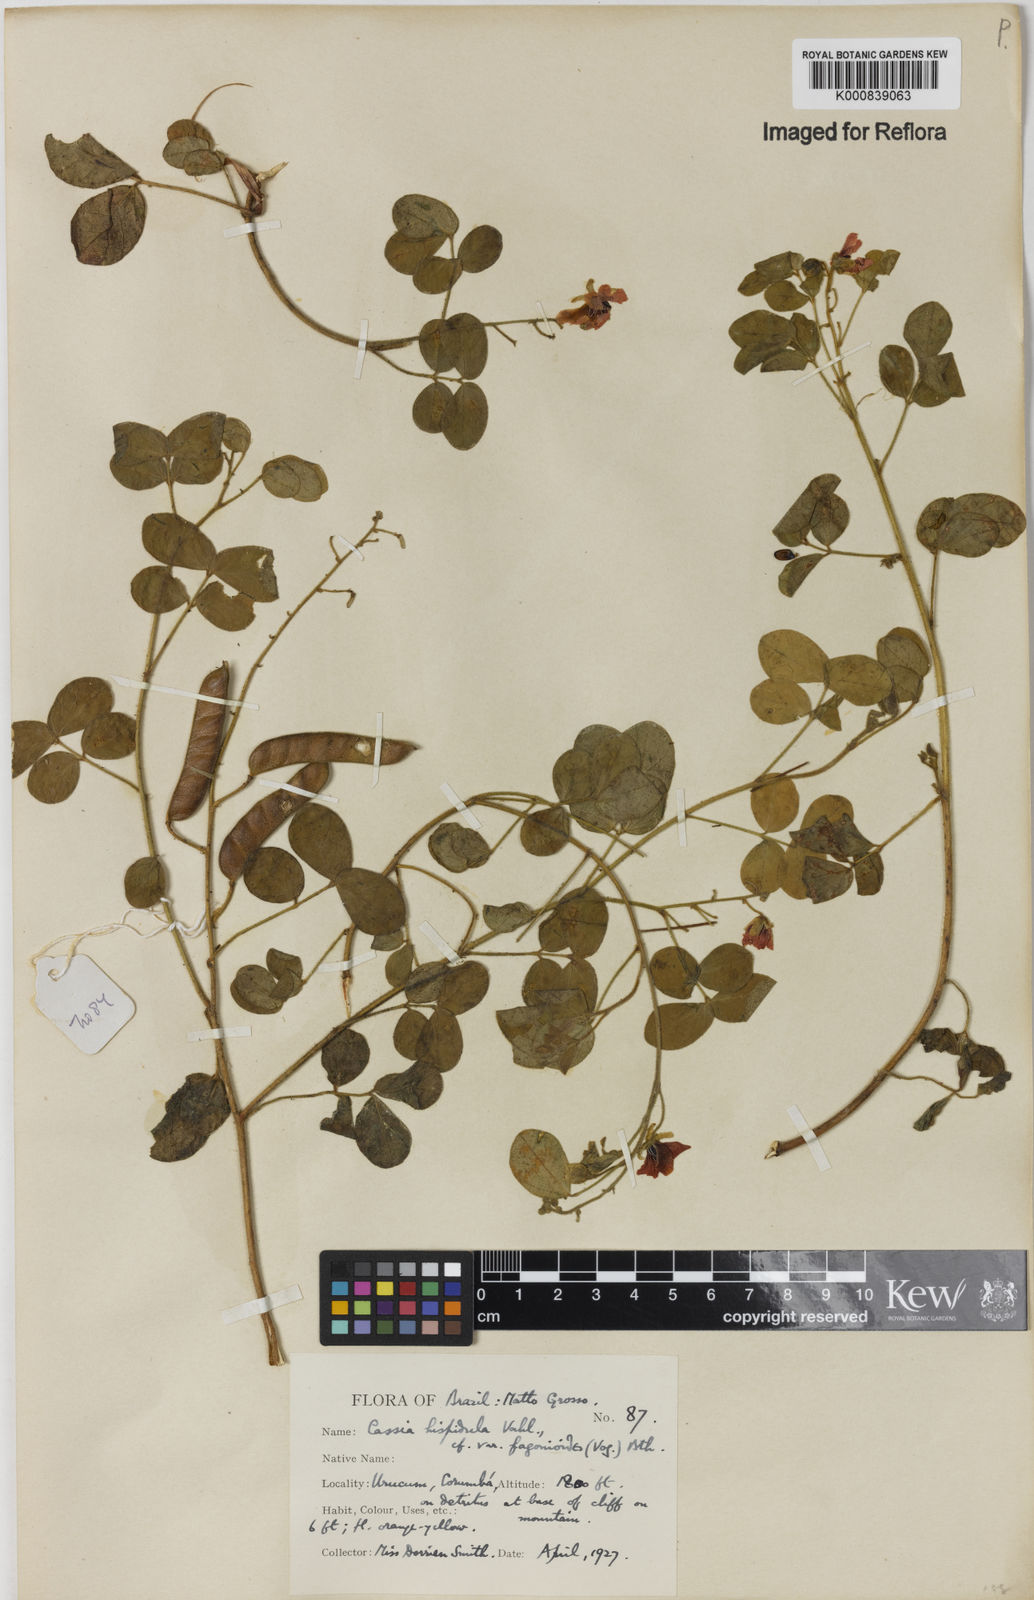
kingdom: Plantae
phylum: Tracheophyta
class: Magnoliopsida
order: Fabales
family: Fabaceae
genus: Chamaecrista
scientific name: Chamaecrista hispidula
